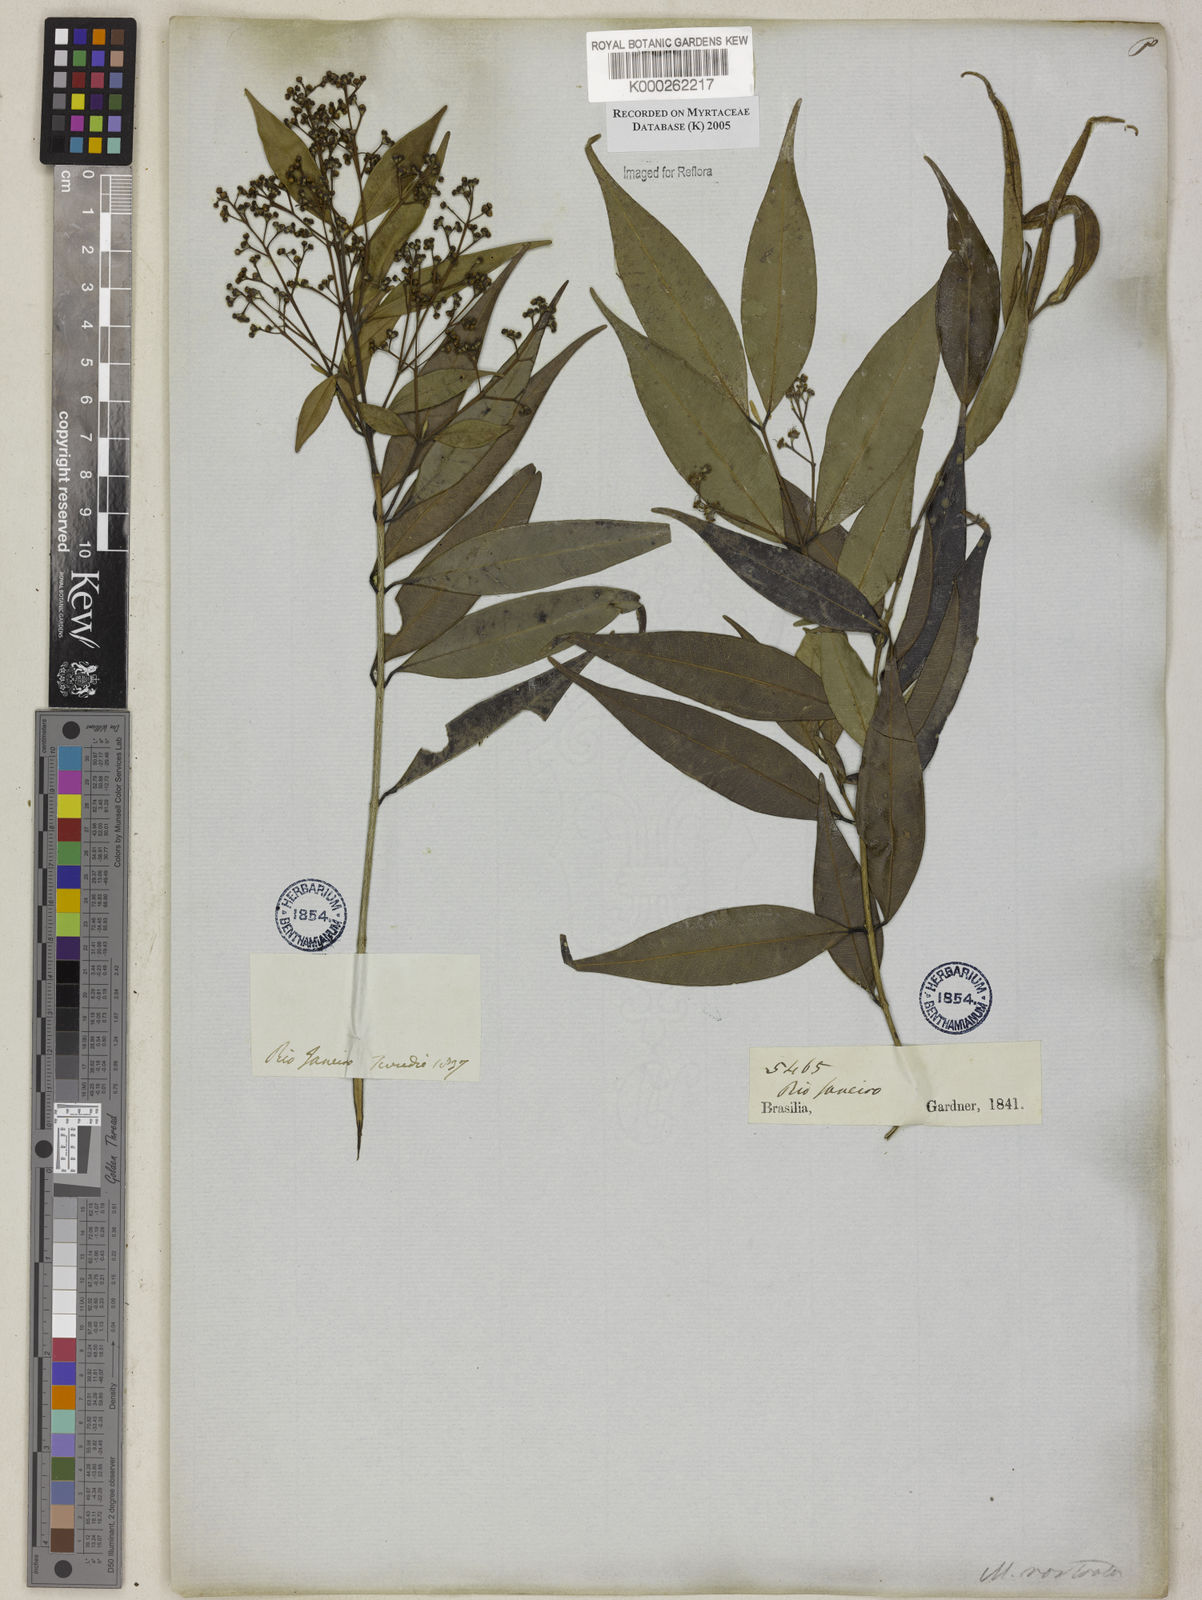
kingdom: Plantae
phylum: Tracheophyta
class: Magnoliopsida
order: Myrtales
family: Myrtaceae
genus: Myrcia
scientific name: Myrcia splendens
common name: Surinam cherry
